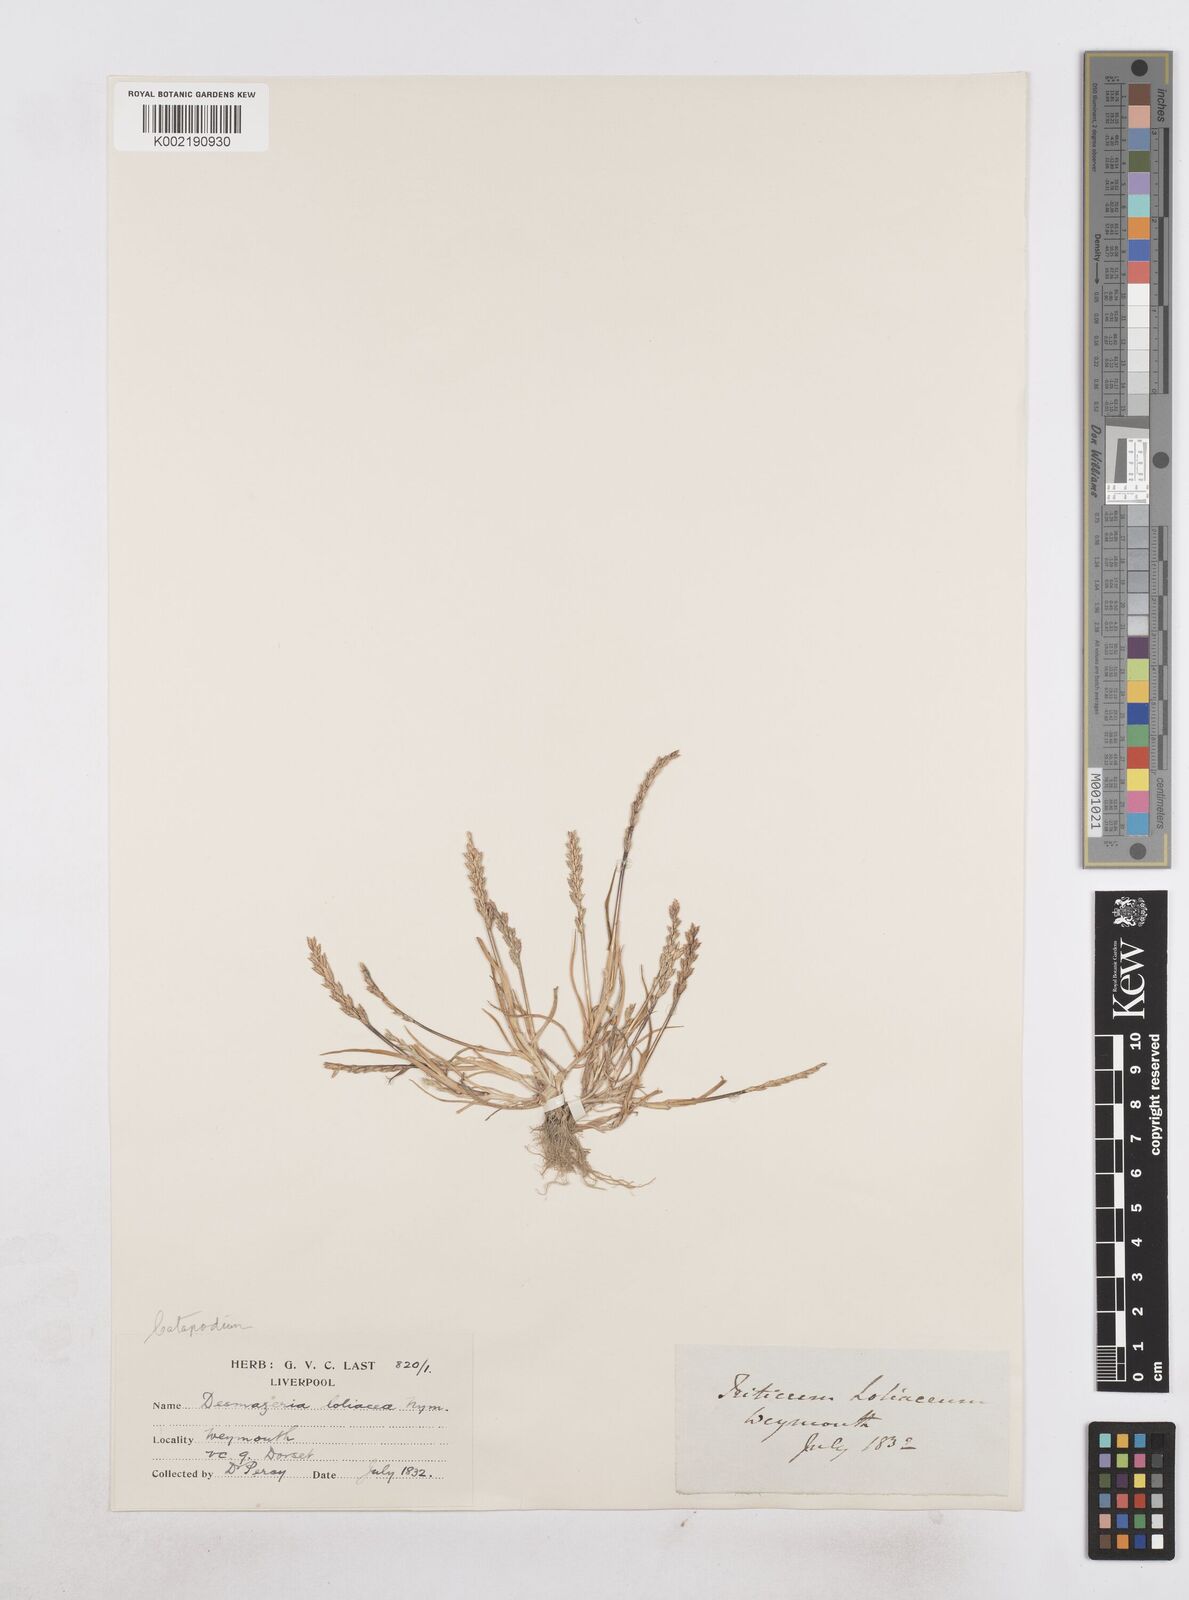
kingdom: Plantae
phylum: Tracheophyta
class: Liliopsida
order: Poales
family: Poaceae
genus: Catapodium
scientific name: Catapodium marinum
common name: Sea fern-grass
